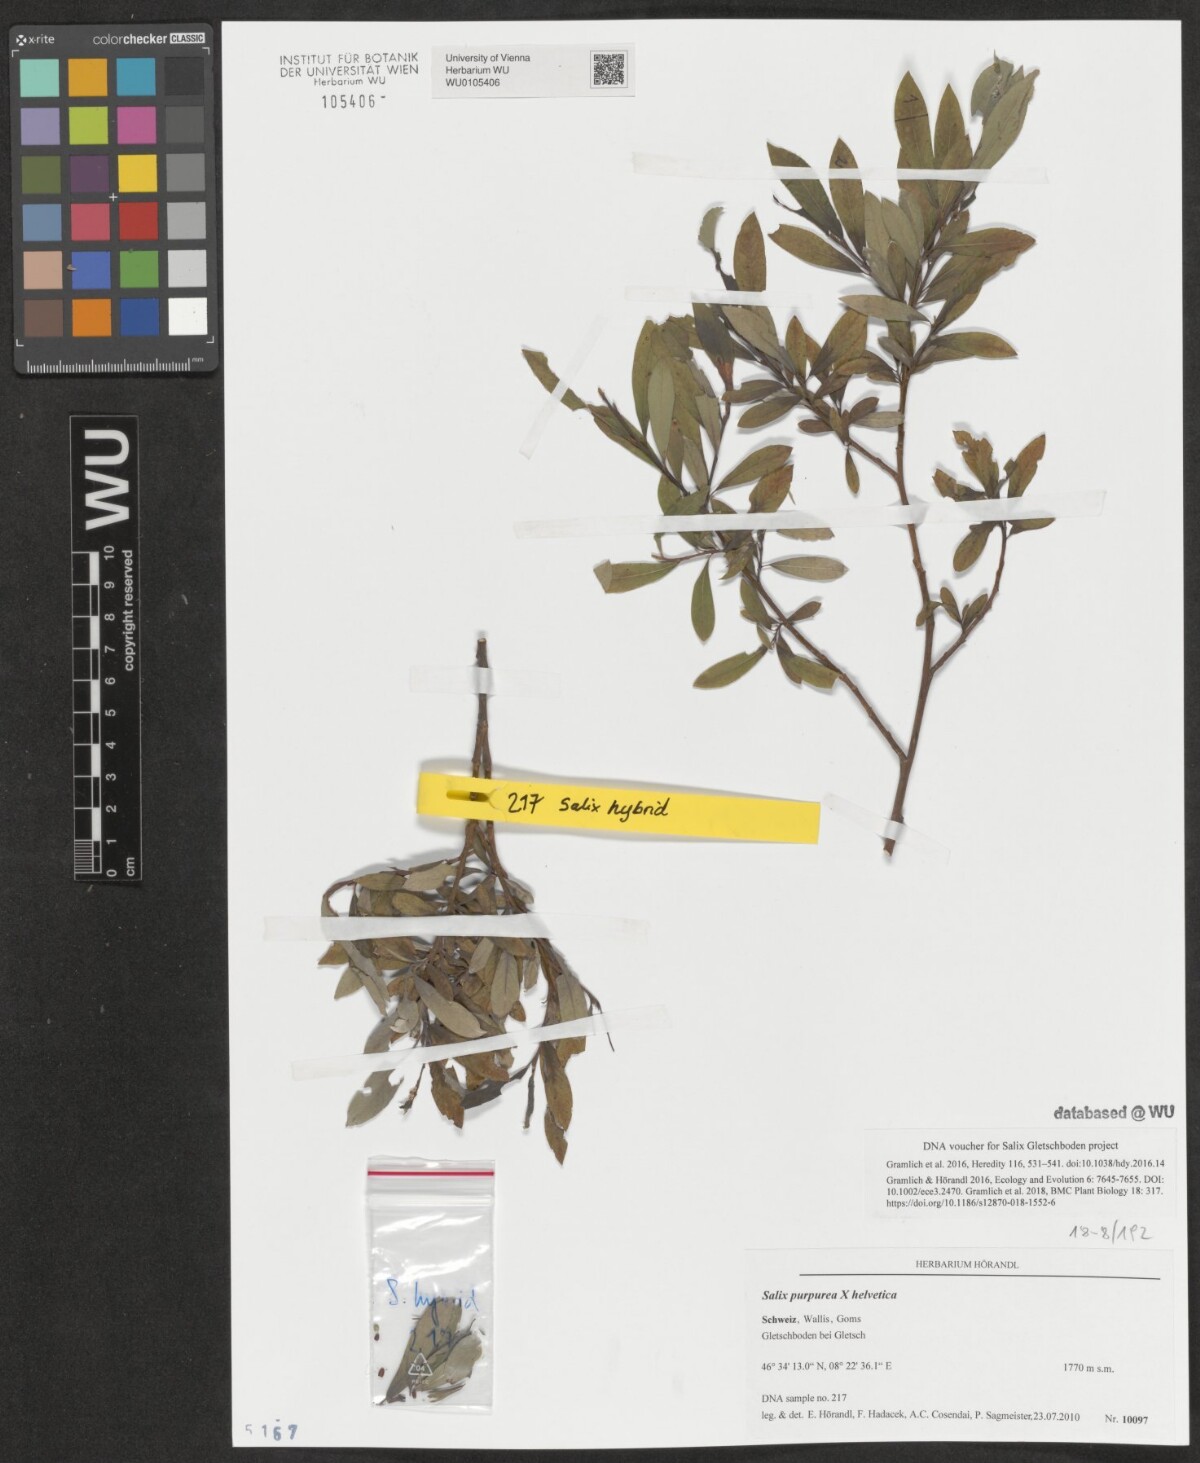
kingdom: Plantae
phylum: Tracheophyta
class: Magnoliopsida
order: Malpighiales
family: Salicaceae
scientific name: Salicaceae
